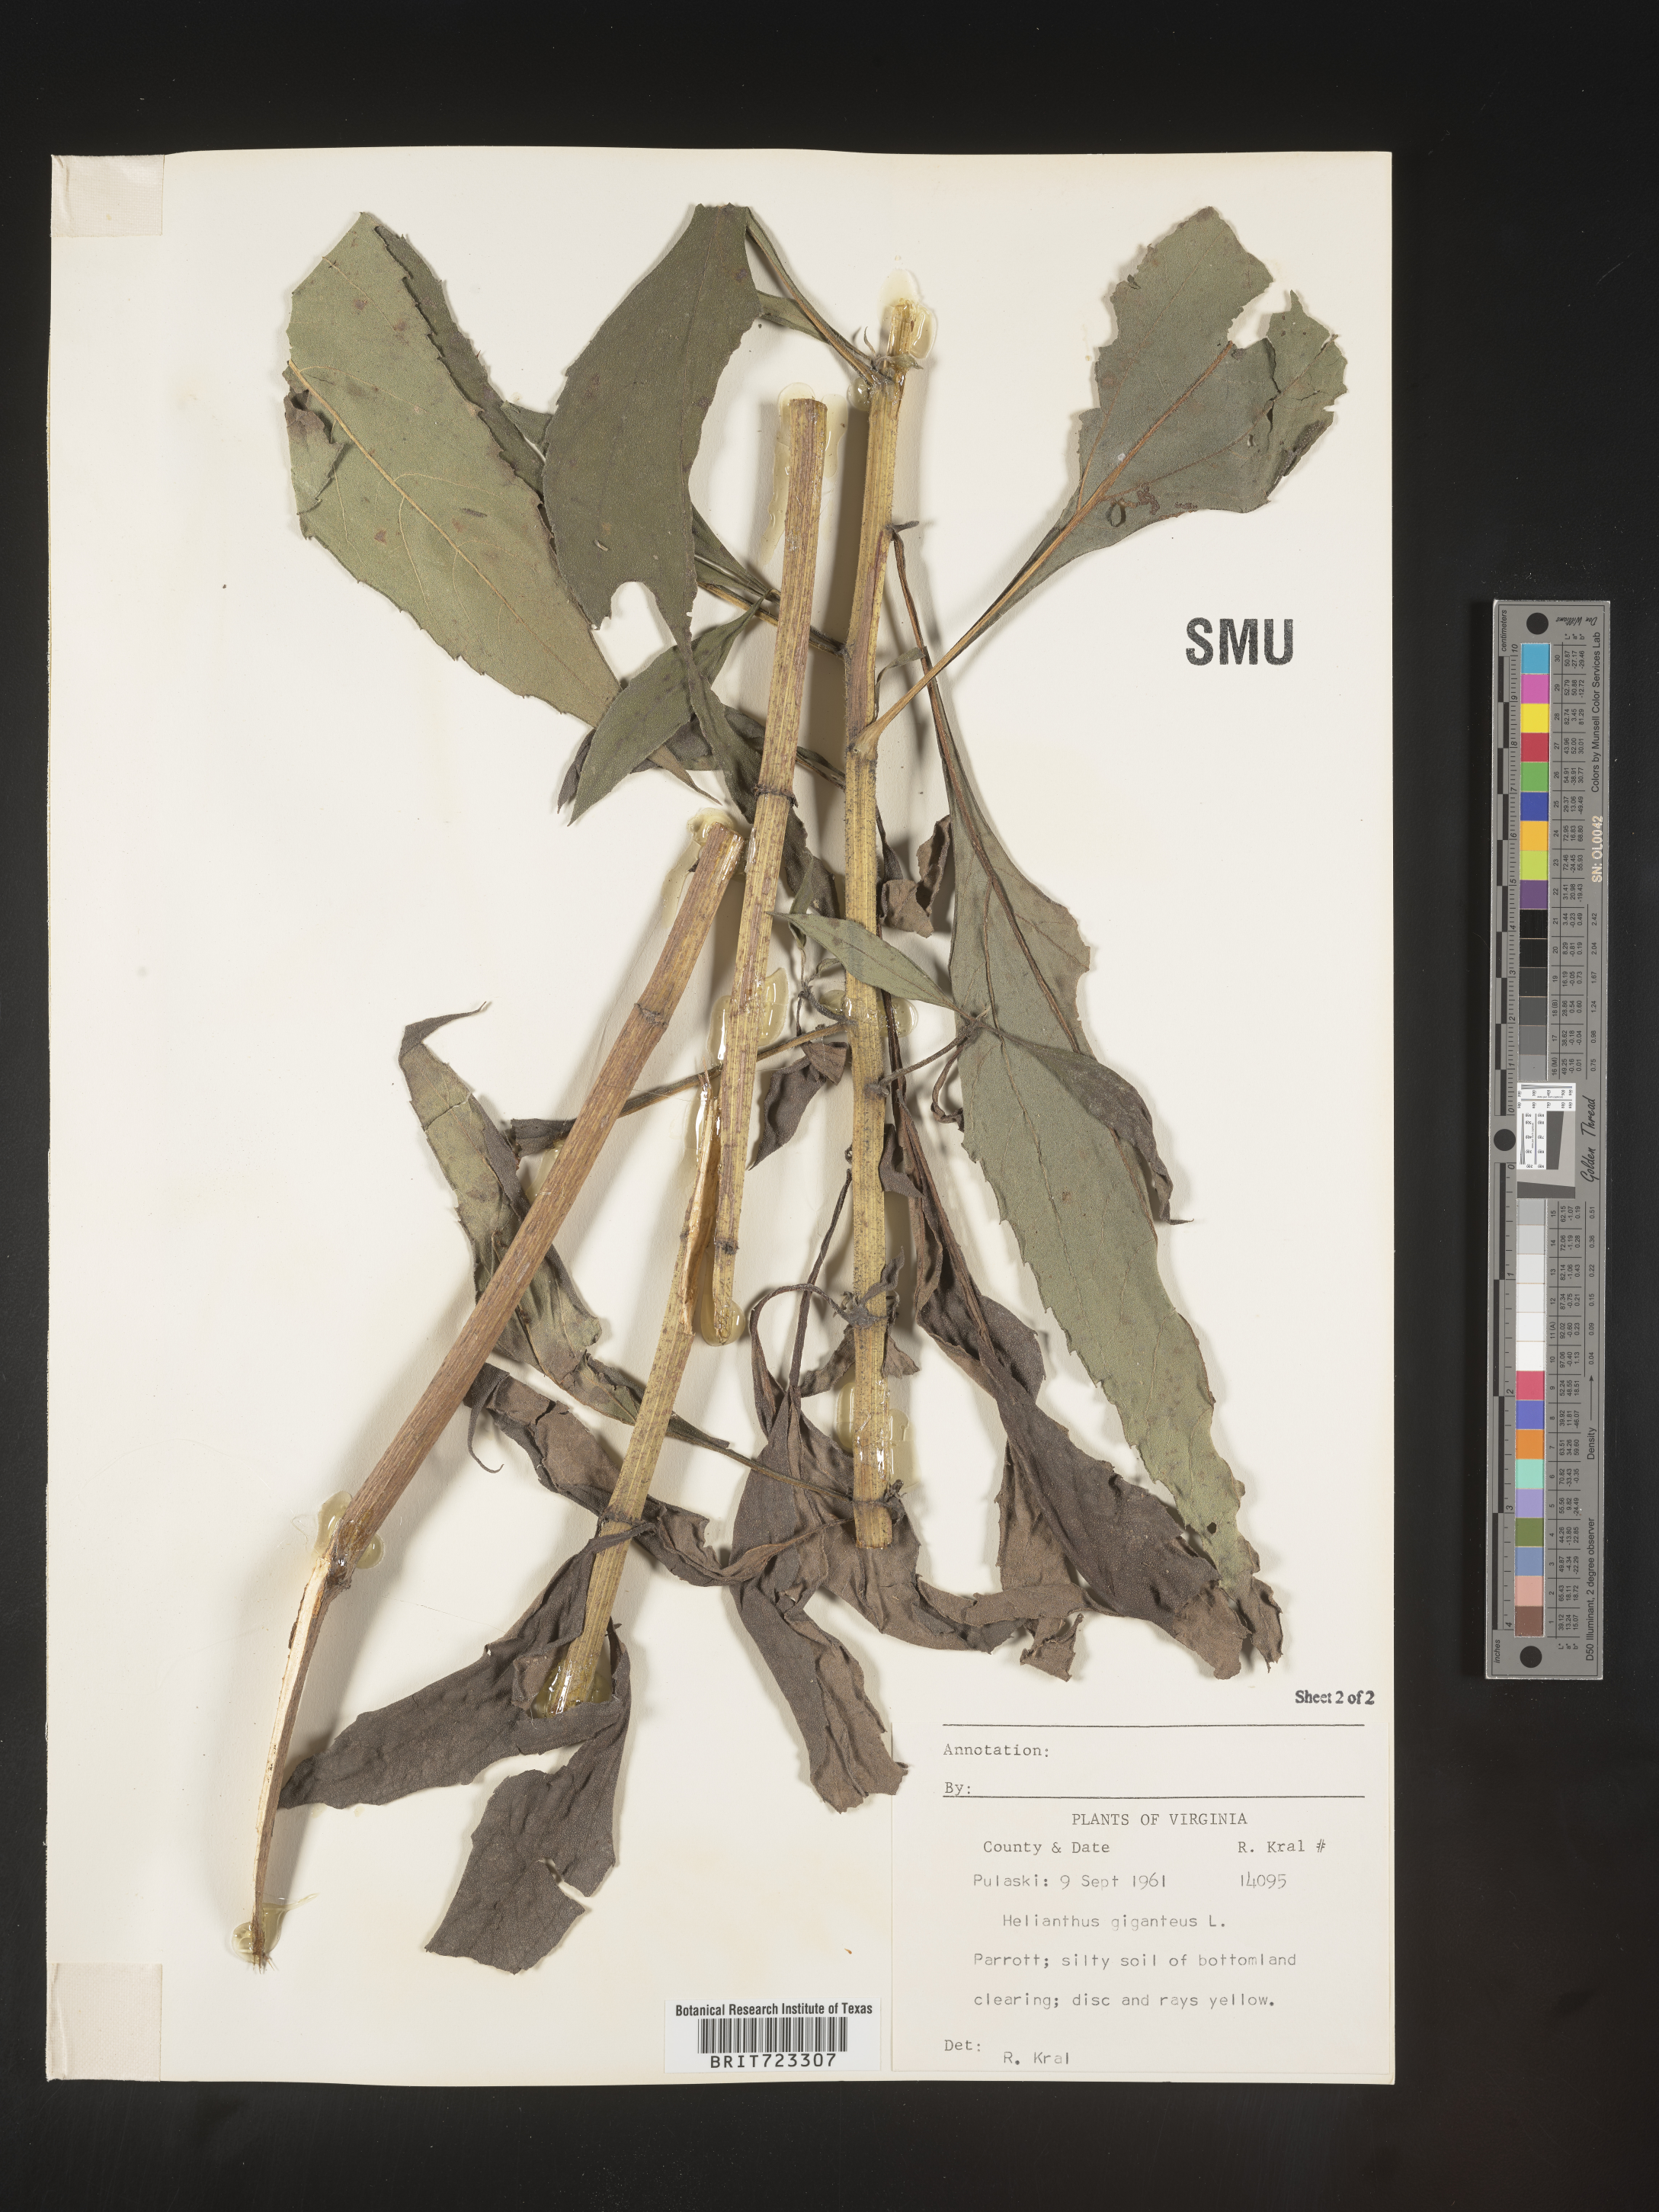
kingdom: Plantae
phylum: Tracheophyta
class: Magnoliopsida
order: Asterales
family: Asteraceae
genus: Helianthus
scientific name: Helianthus giganteus
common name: Giant sunflower
